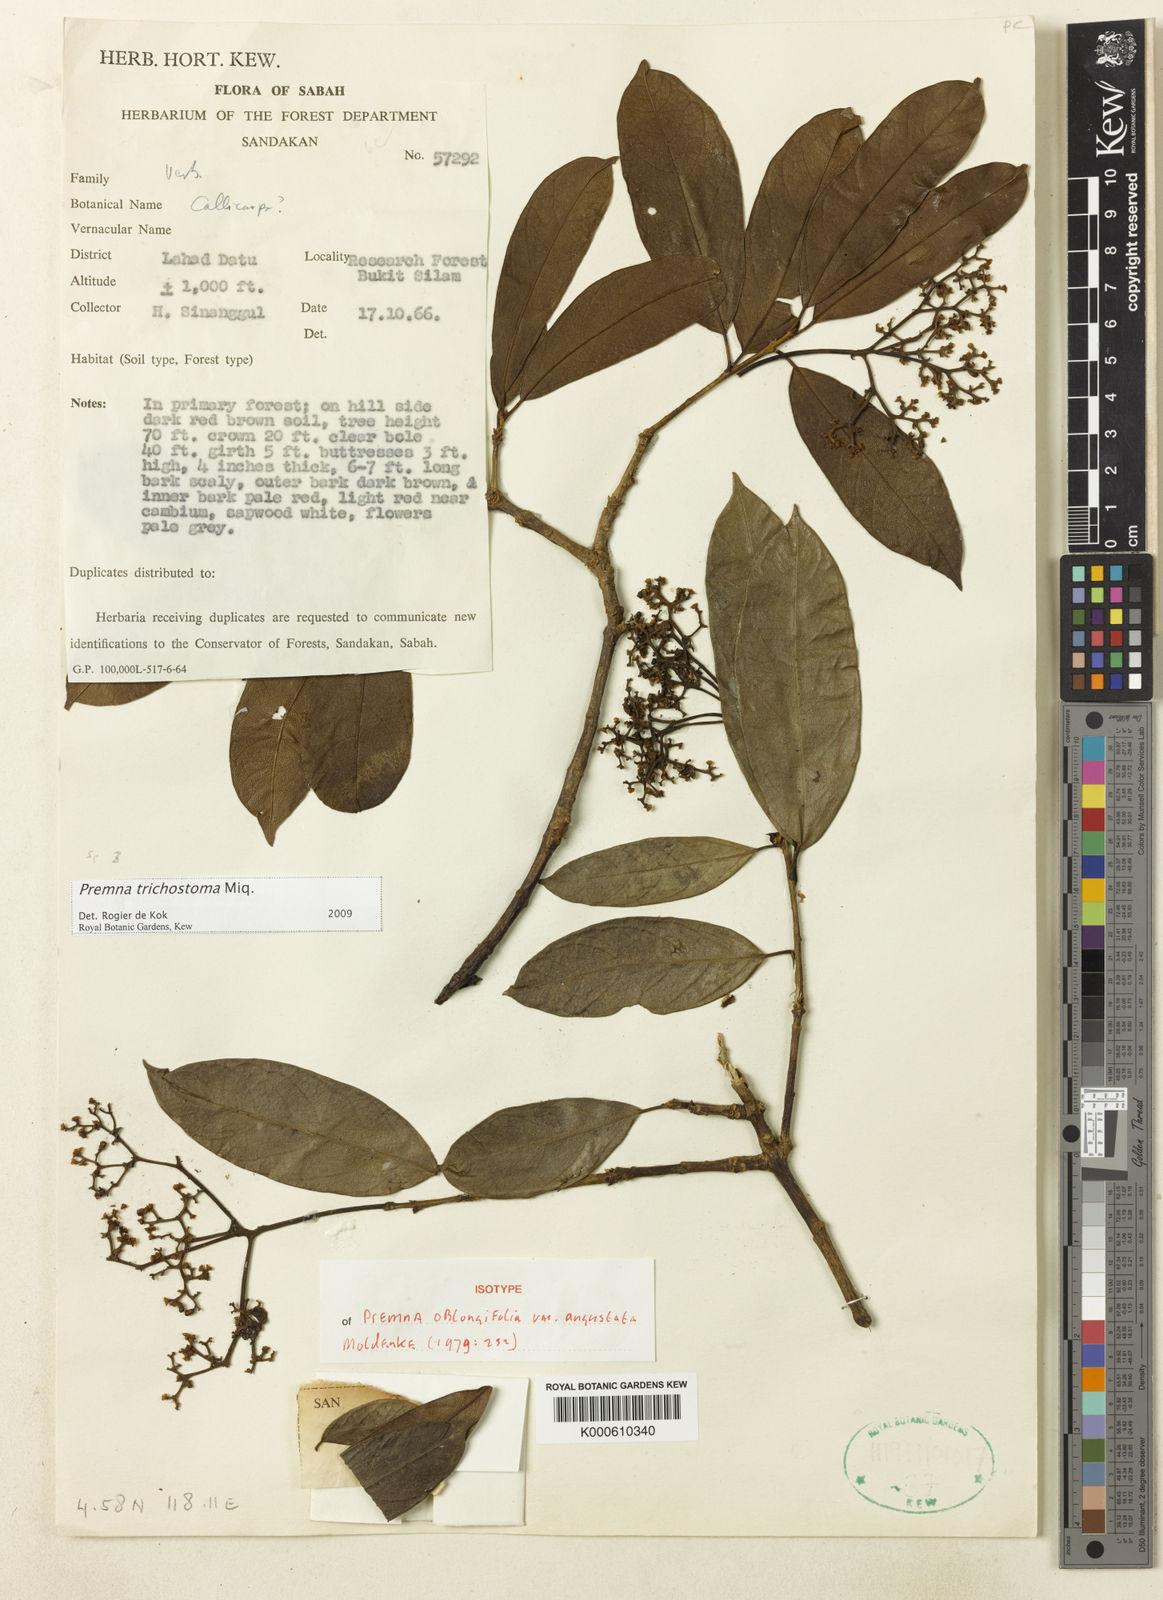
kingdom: Plantae
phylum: Tracheophyta
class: Magnoliopsida
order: Lamiales
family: Lamiaceae
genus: Premna
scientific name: Premna
